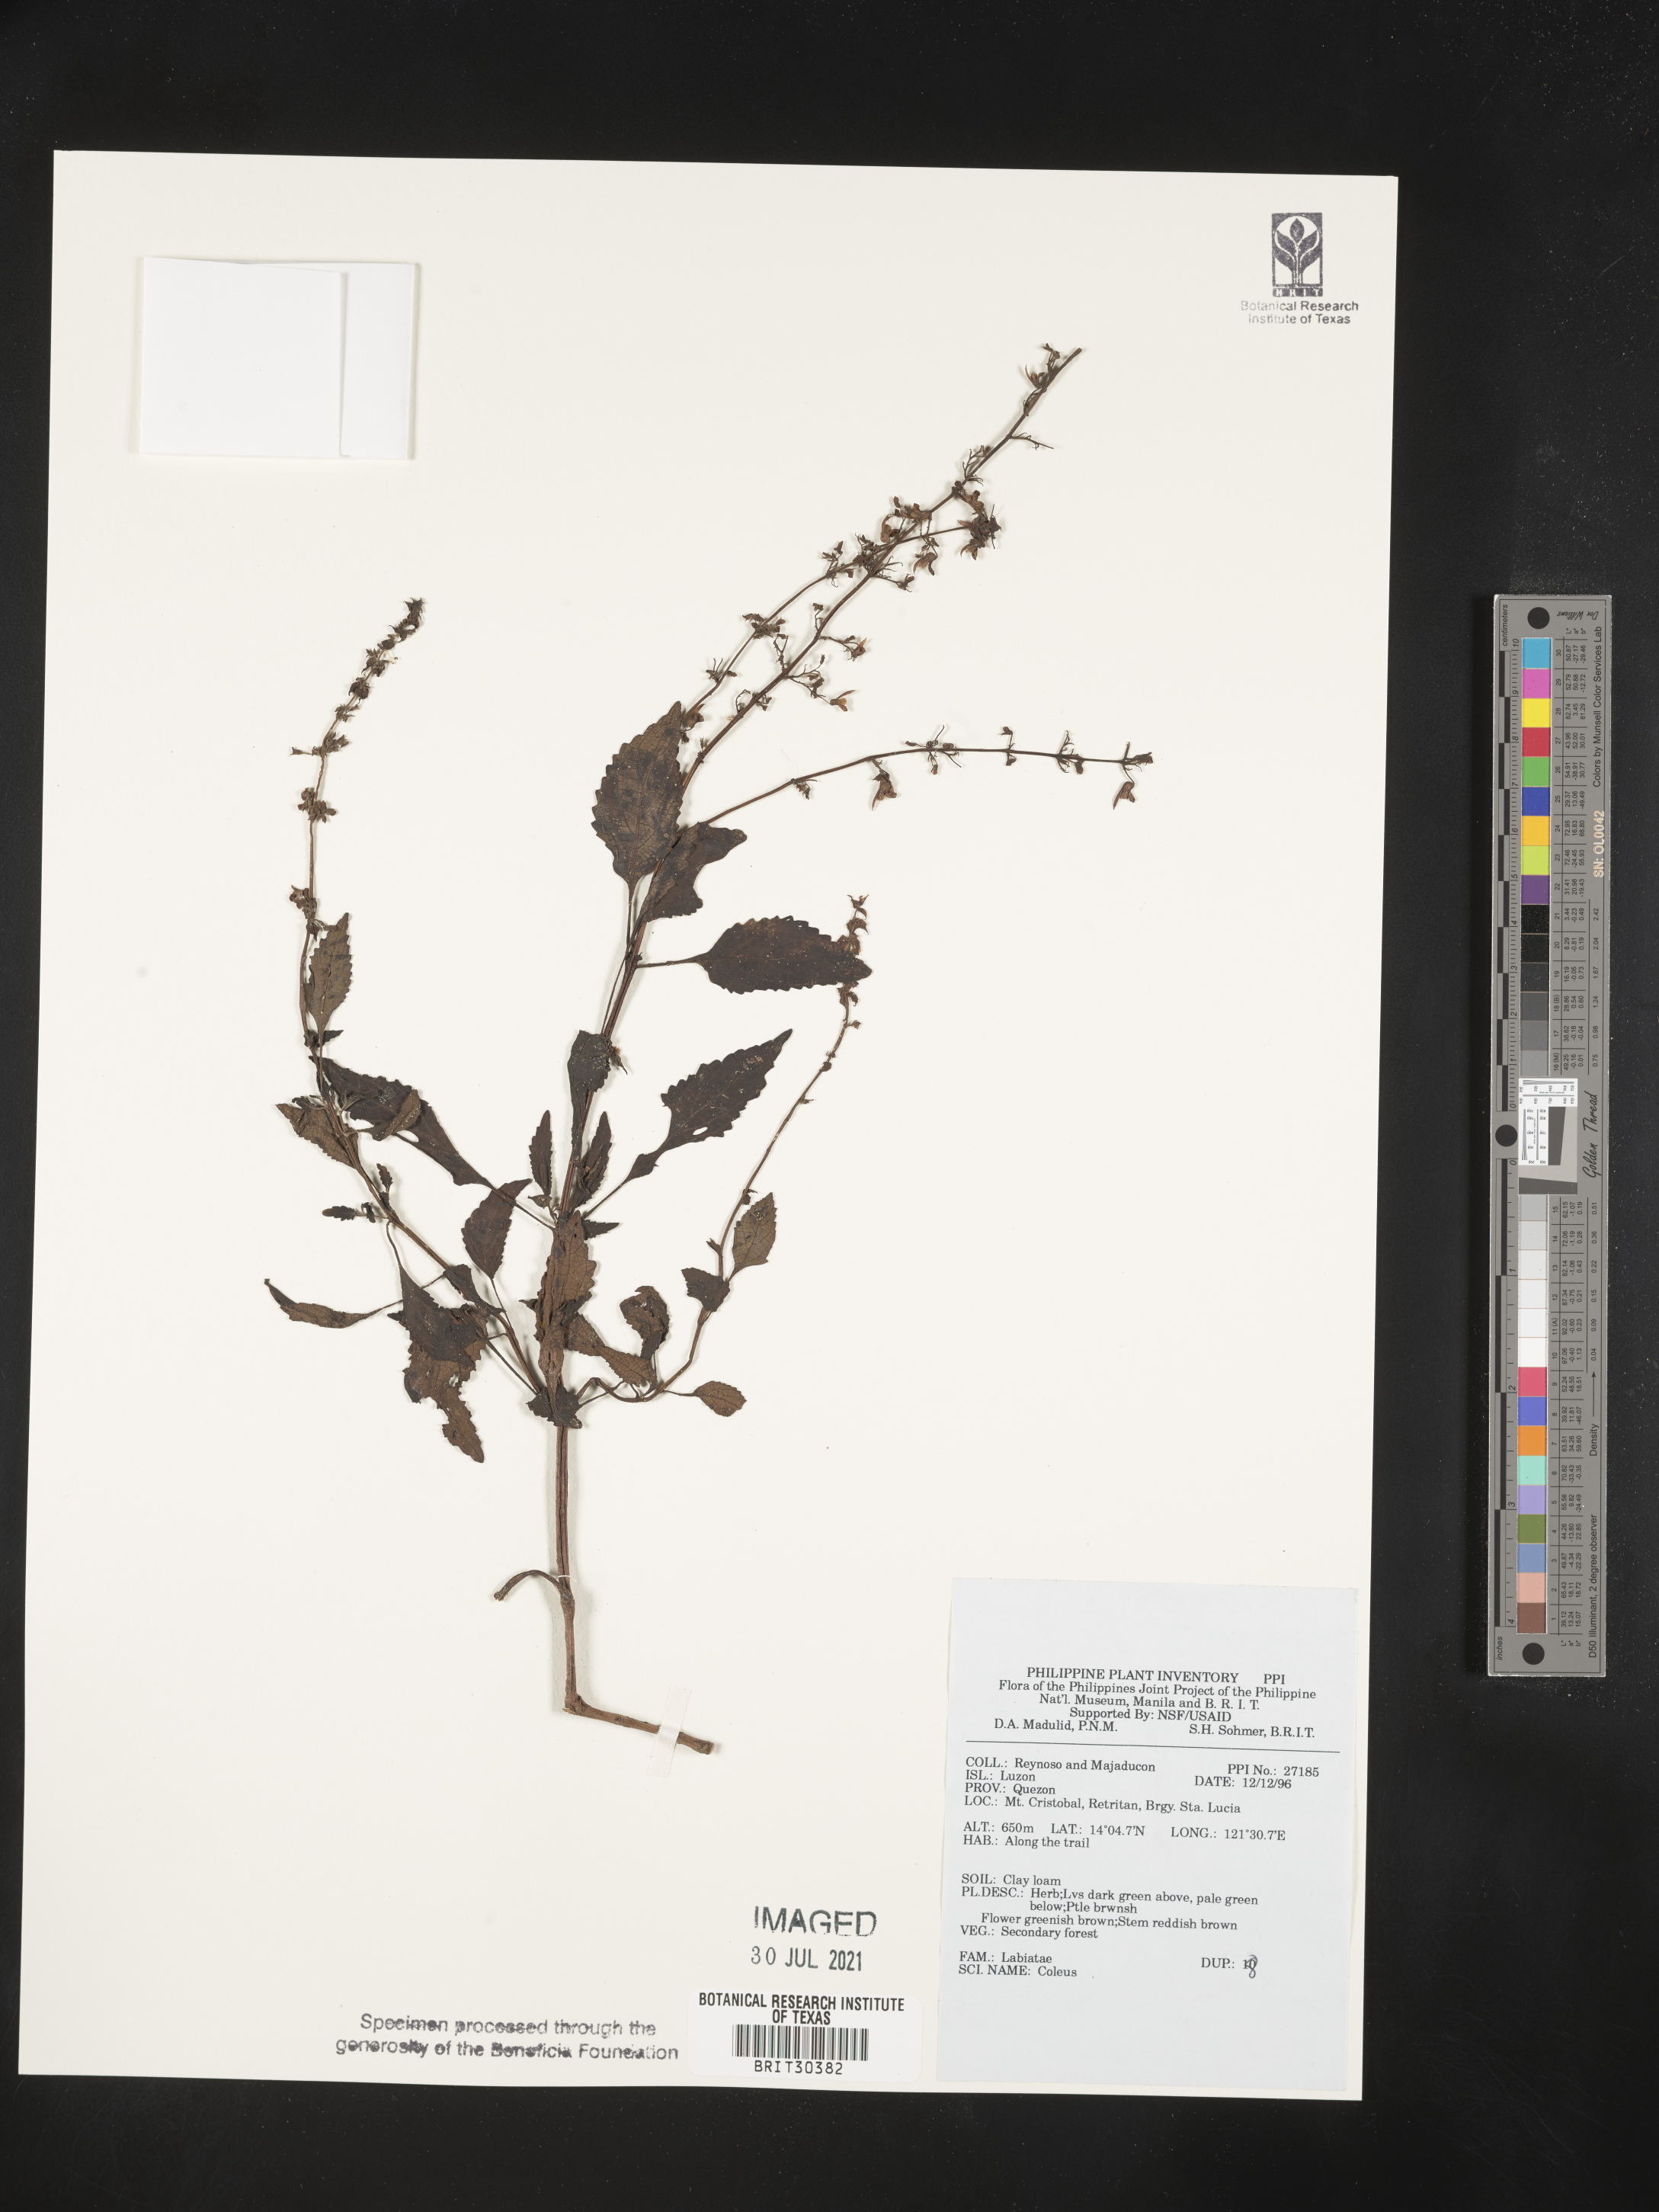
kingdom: Plantae
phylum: Tracheophyta
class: Magnoliopsida
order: Lamiales
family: Lamiaceae
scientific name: Lamiaceae
